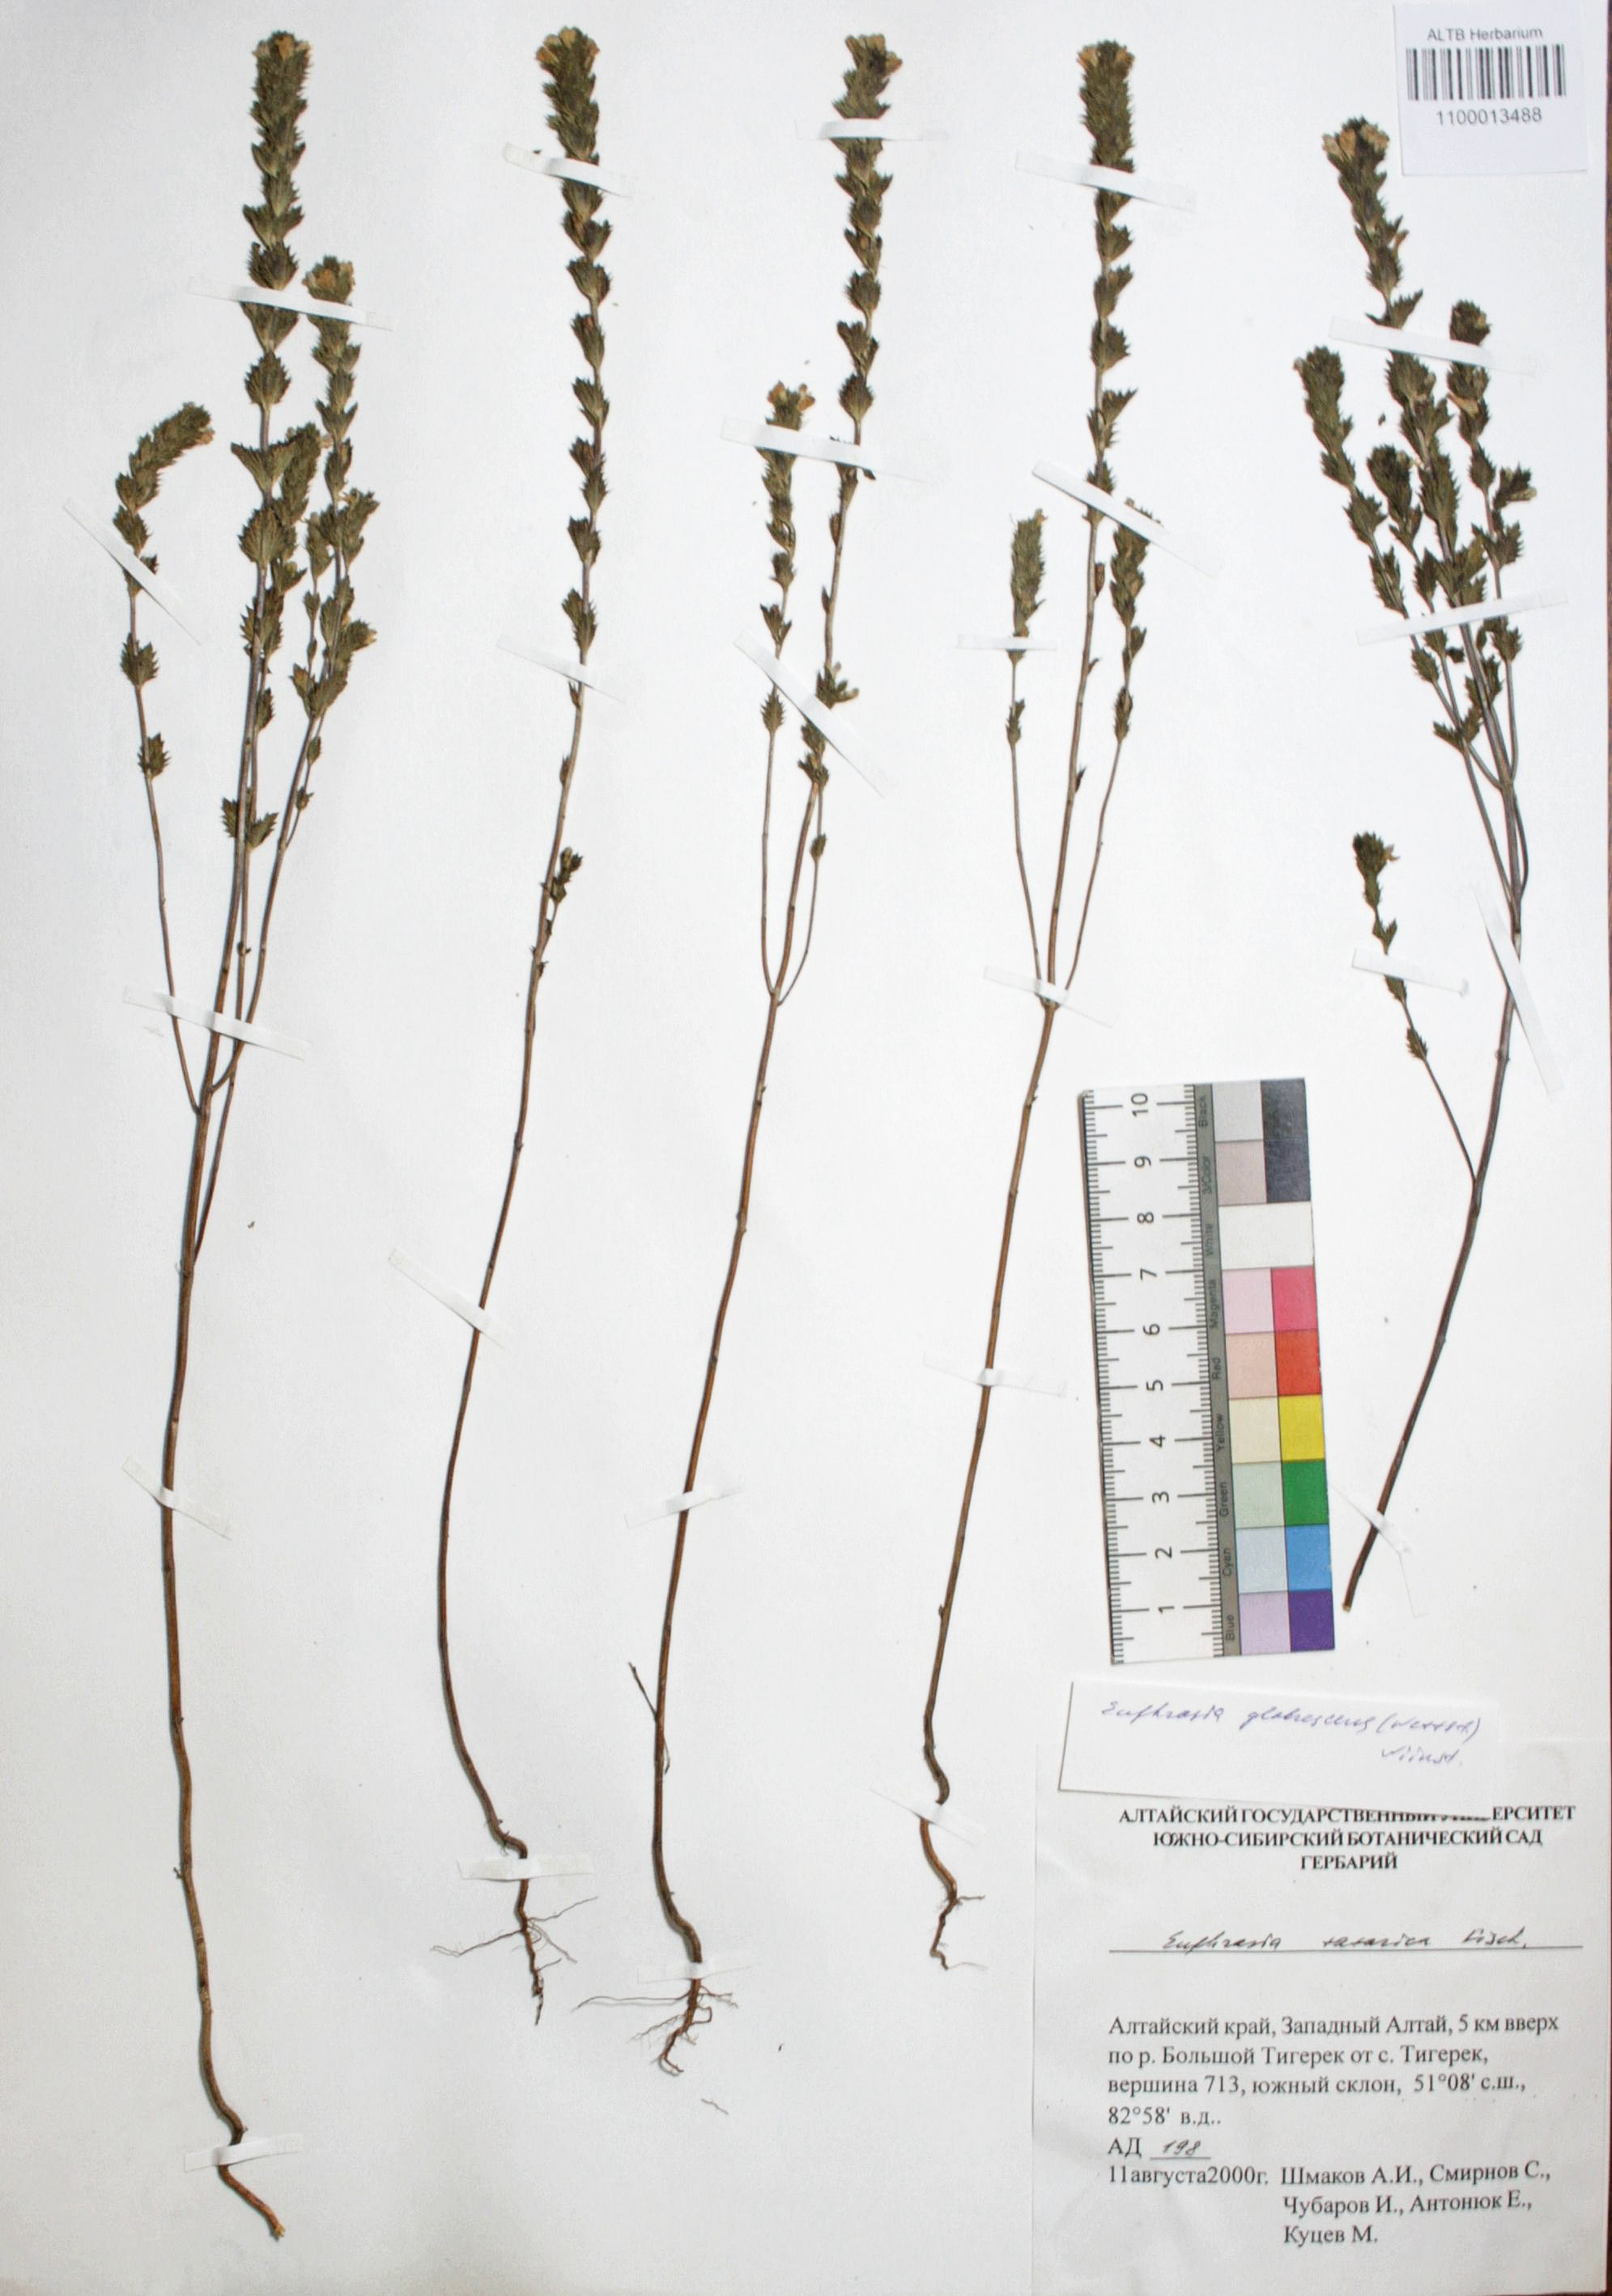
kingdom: Plantae
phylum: Tracheophyta
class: Magnoliopsida
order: Lamiales
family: Orobanchaceae
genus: Euphrasia
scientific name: Euphrasia micrantha
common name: Northern eyebright
